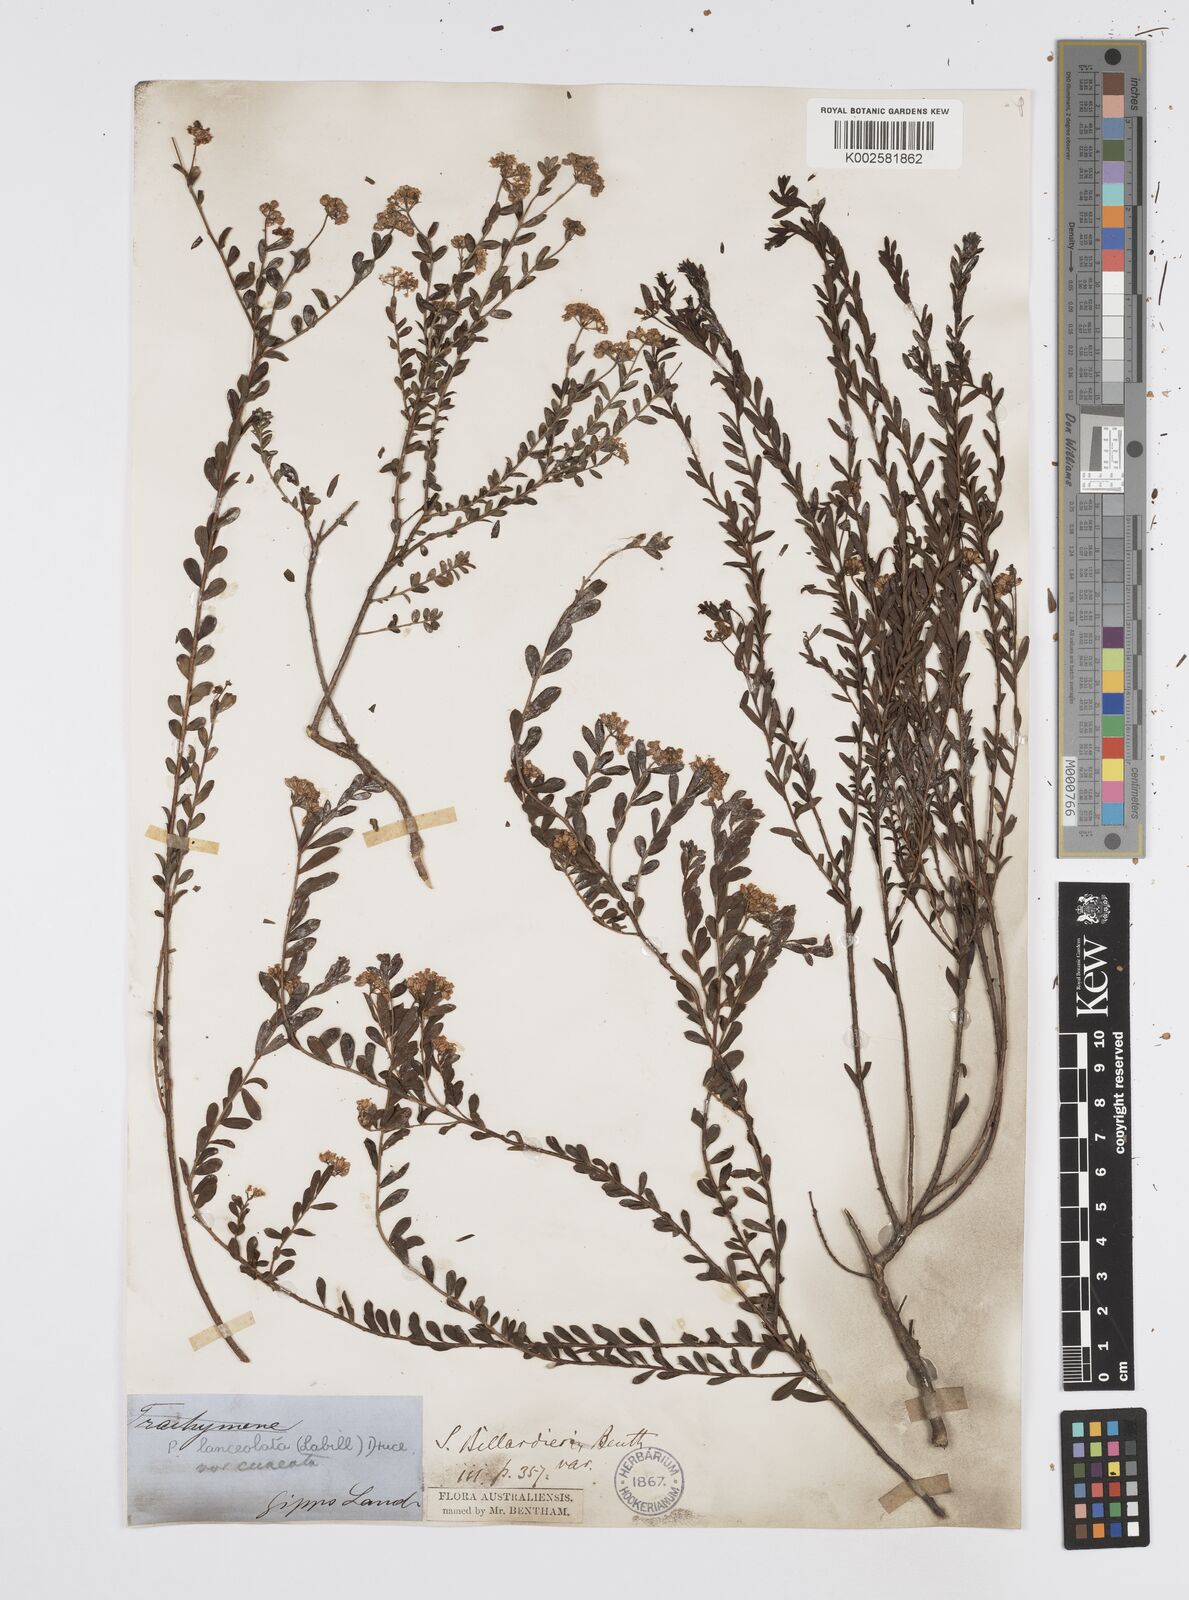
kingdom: Plantae
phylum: Tracheophyta
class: Magnoliopsida
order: Apiales
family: Apiaceae
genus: Platysace
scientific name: Platysace lanceolata
